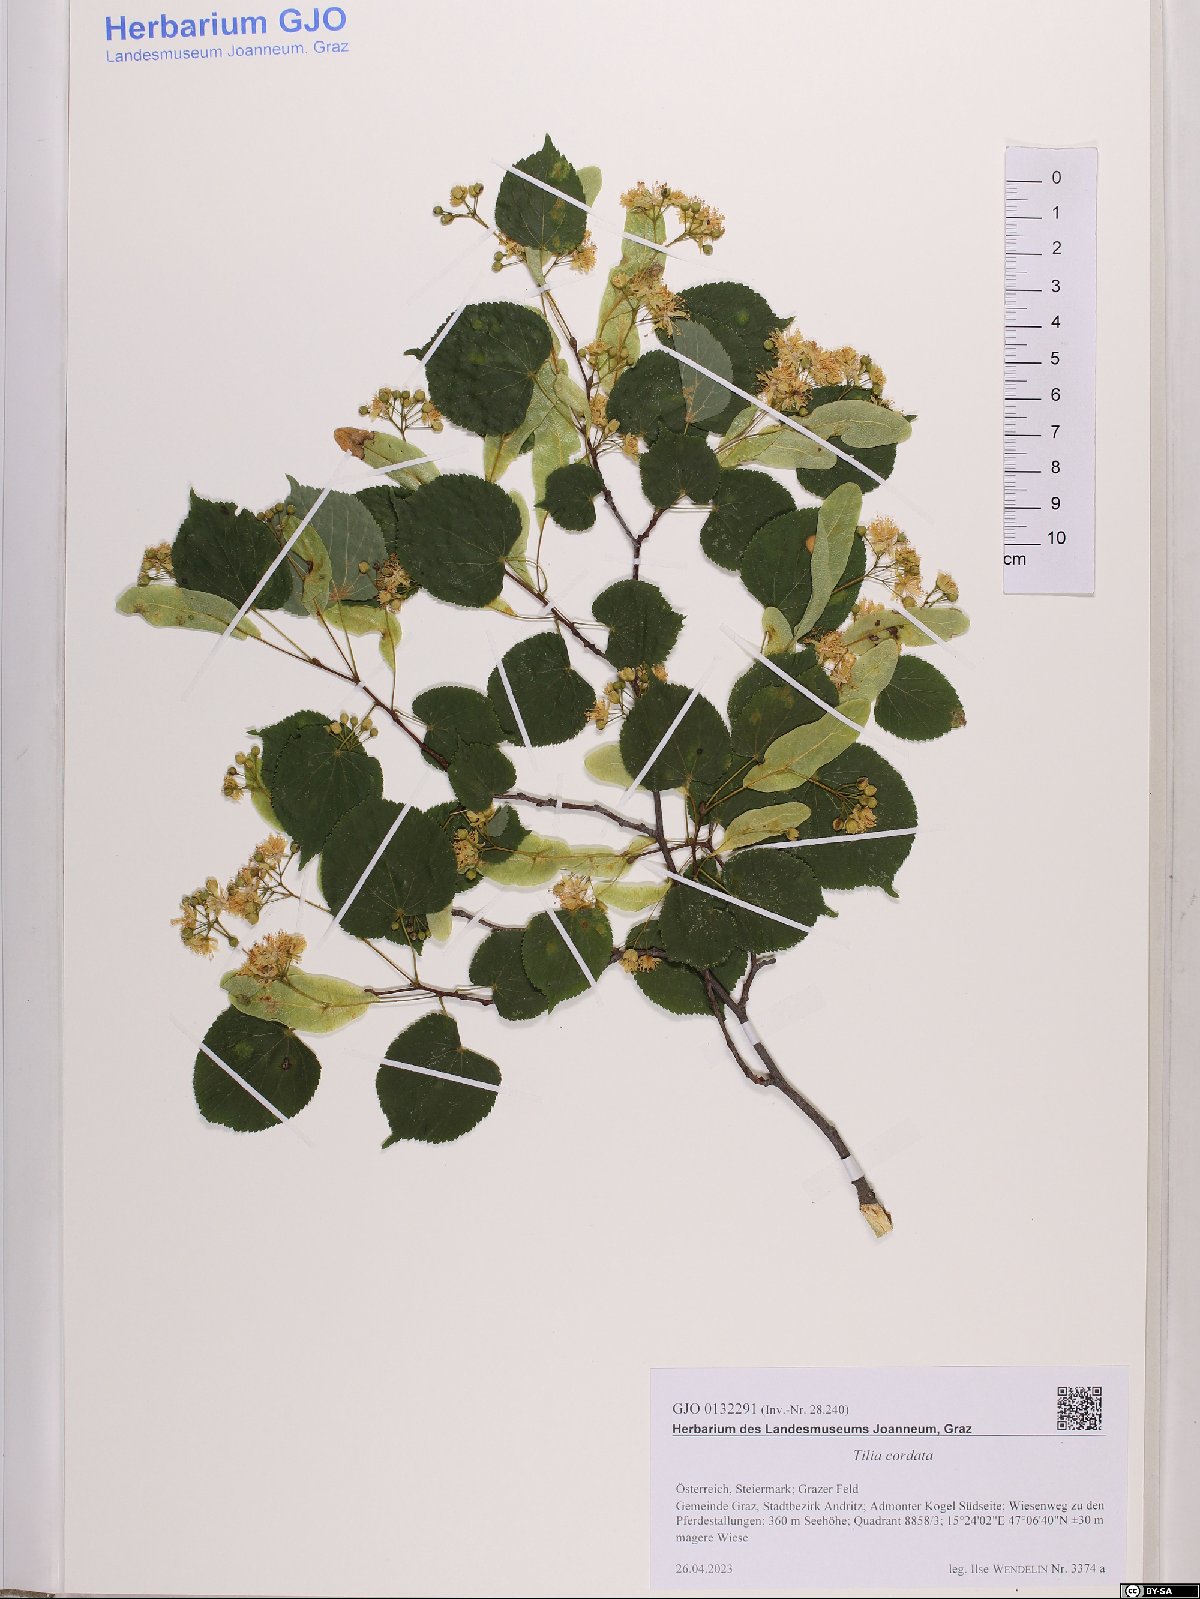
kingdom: Plantae
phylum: Tracheophyta
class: Magnoliopsida
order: Malvales
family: Malvaceae
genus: Tilia
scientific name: Tilia cordata
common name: Small-leaved lime
